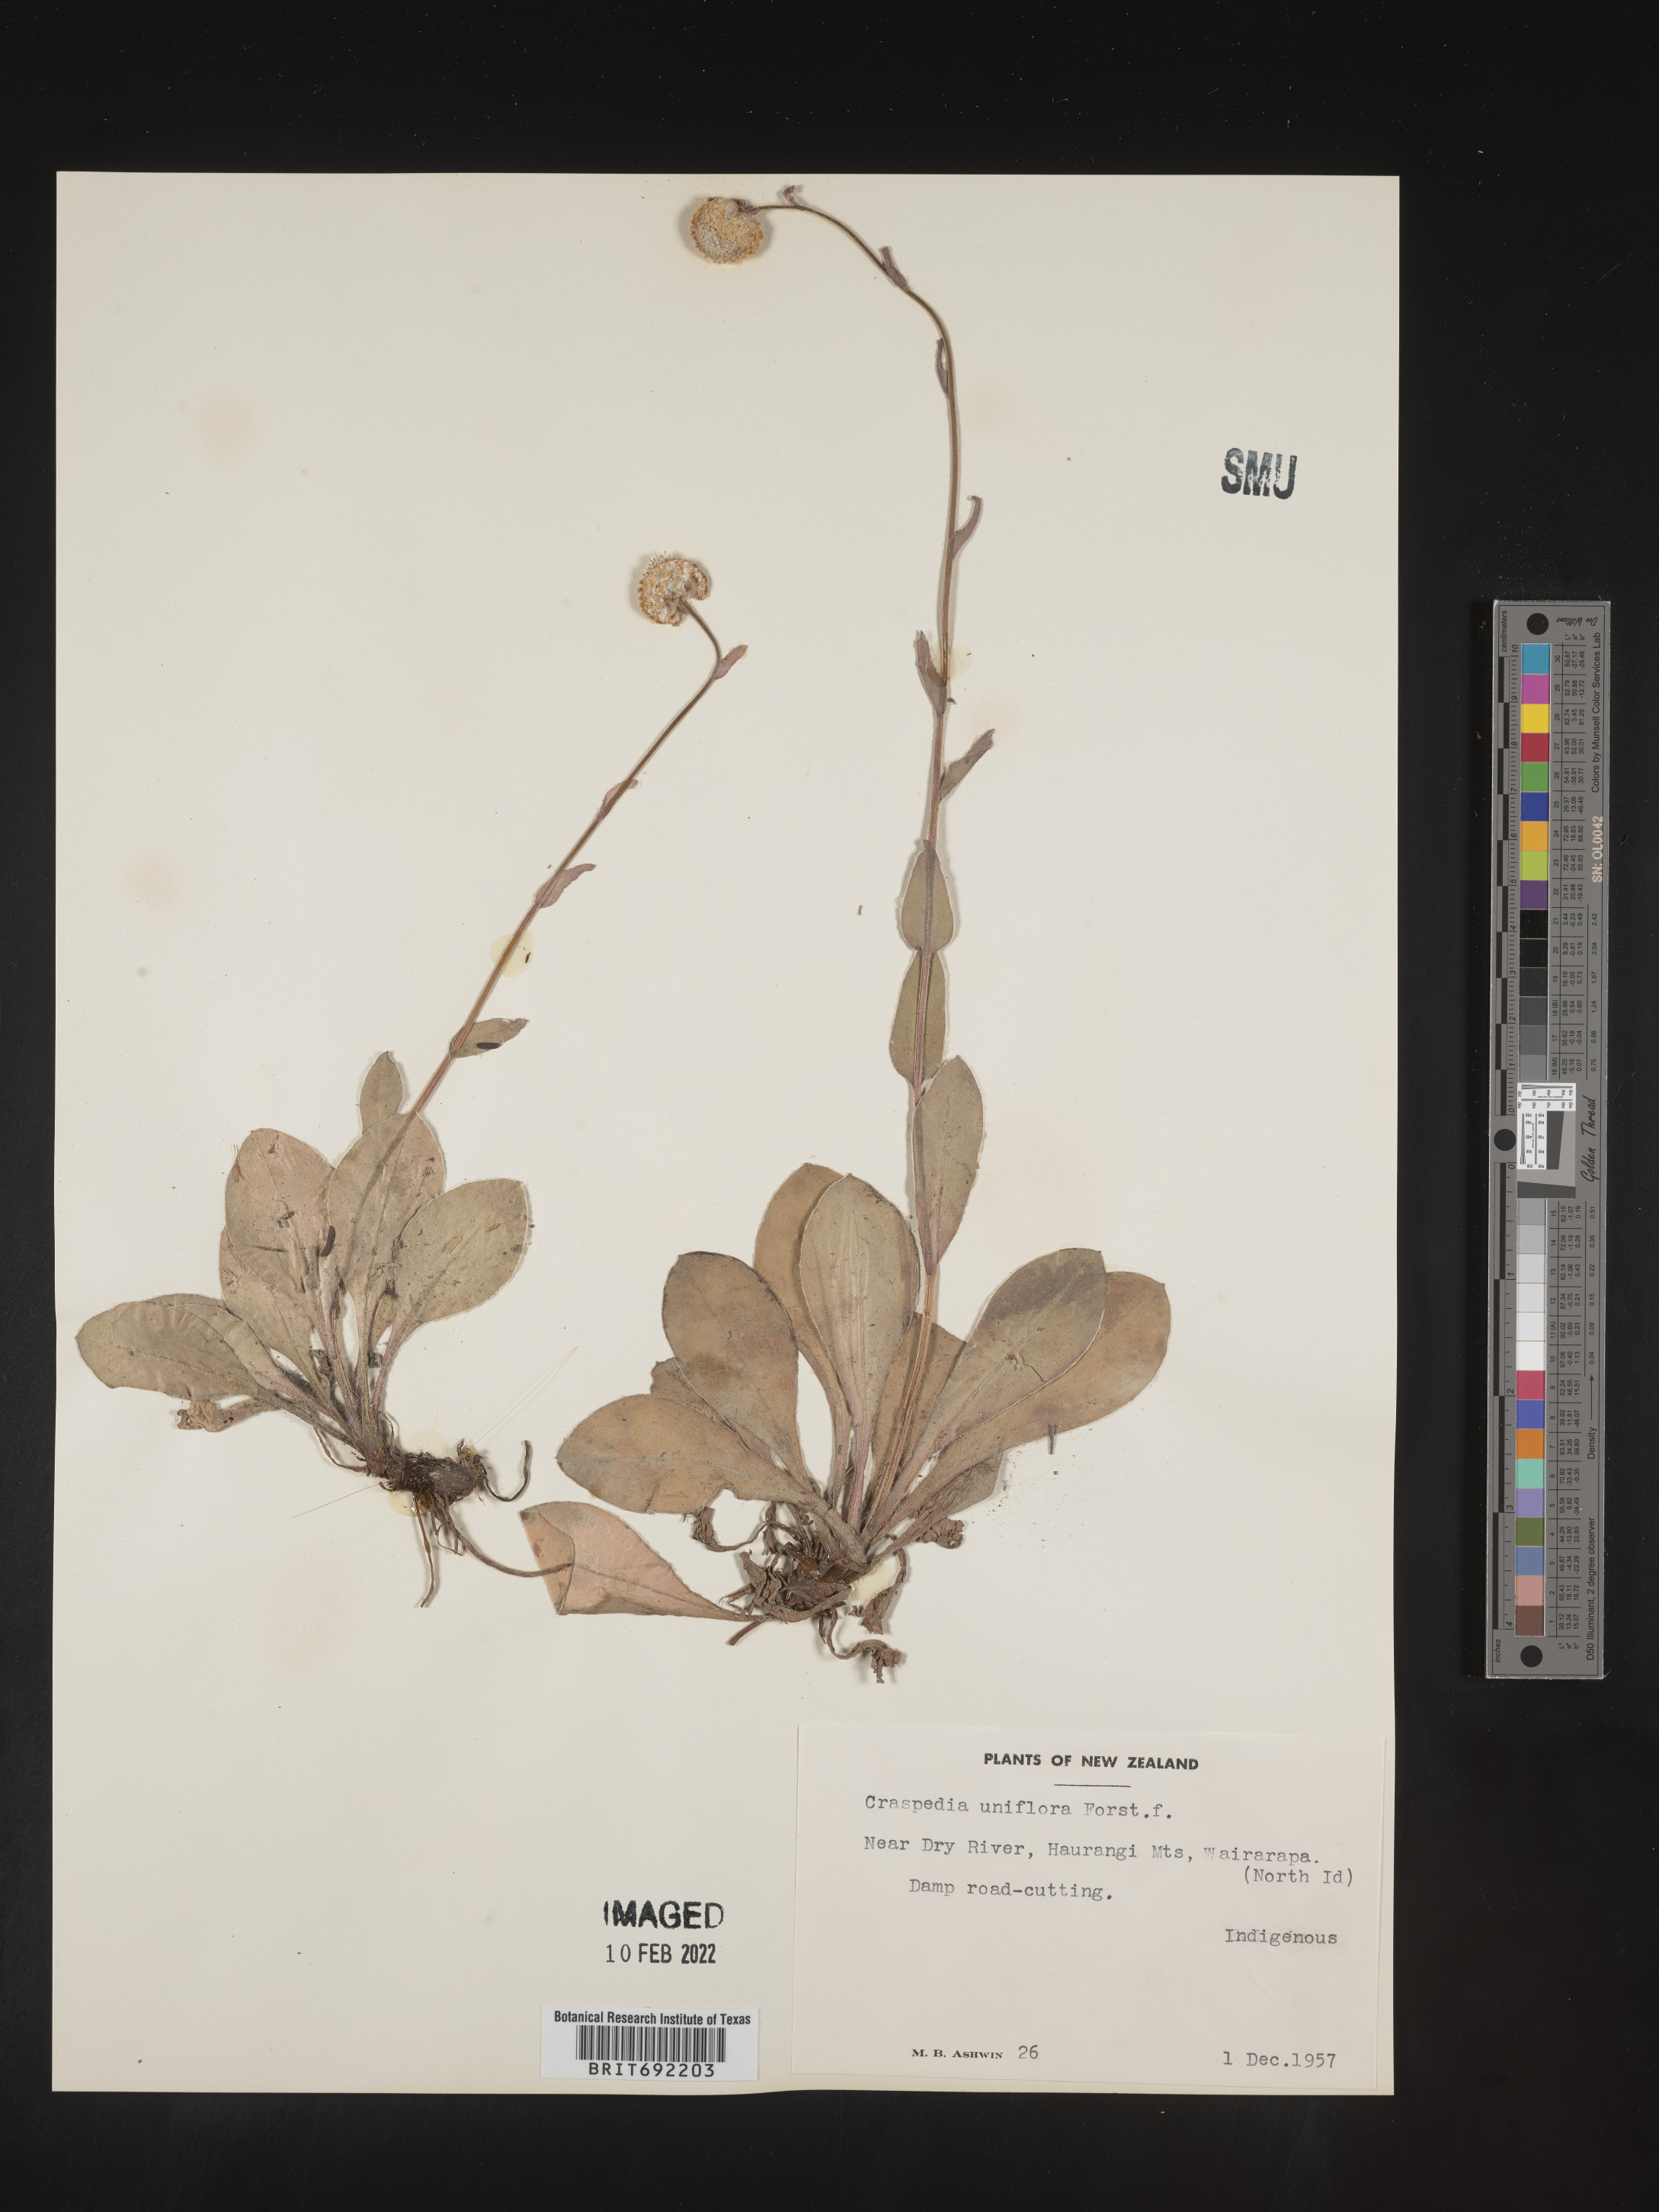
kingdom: Plantae
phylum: Tracheophyta
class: Magnoliopsida
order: Asterales
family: Asteraceae
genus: Craspedia
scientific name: Craspedia
